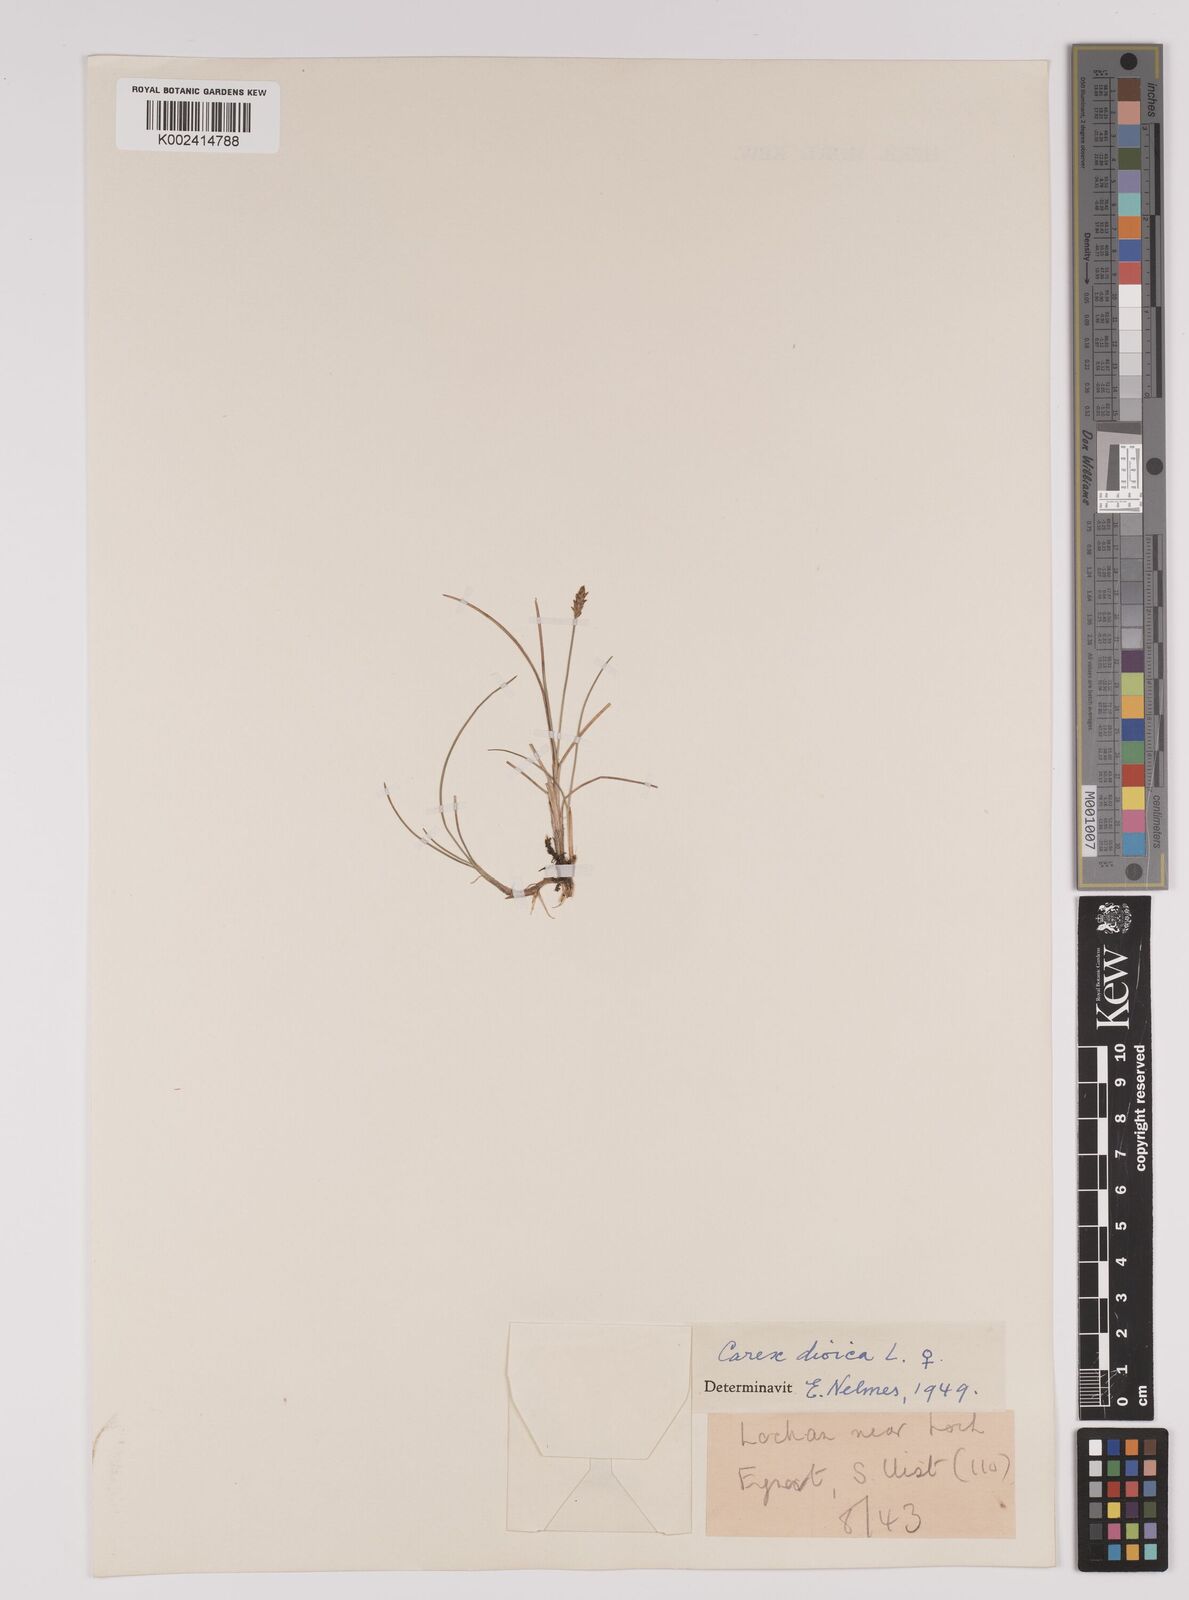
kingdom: Plantae
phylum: Tracheophyta
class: Liliopsida
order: Poales
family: Cyperaceae
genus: Carex
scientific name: Carex dioica
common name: Dioecious sedge
